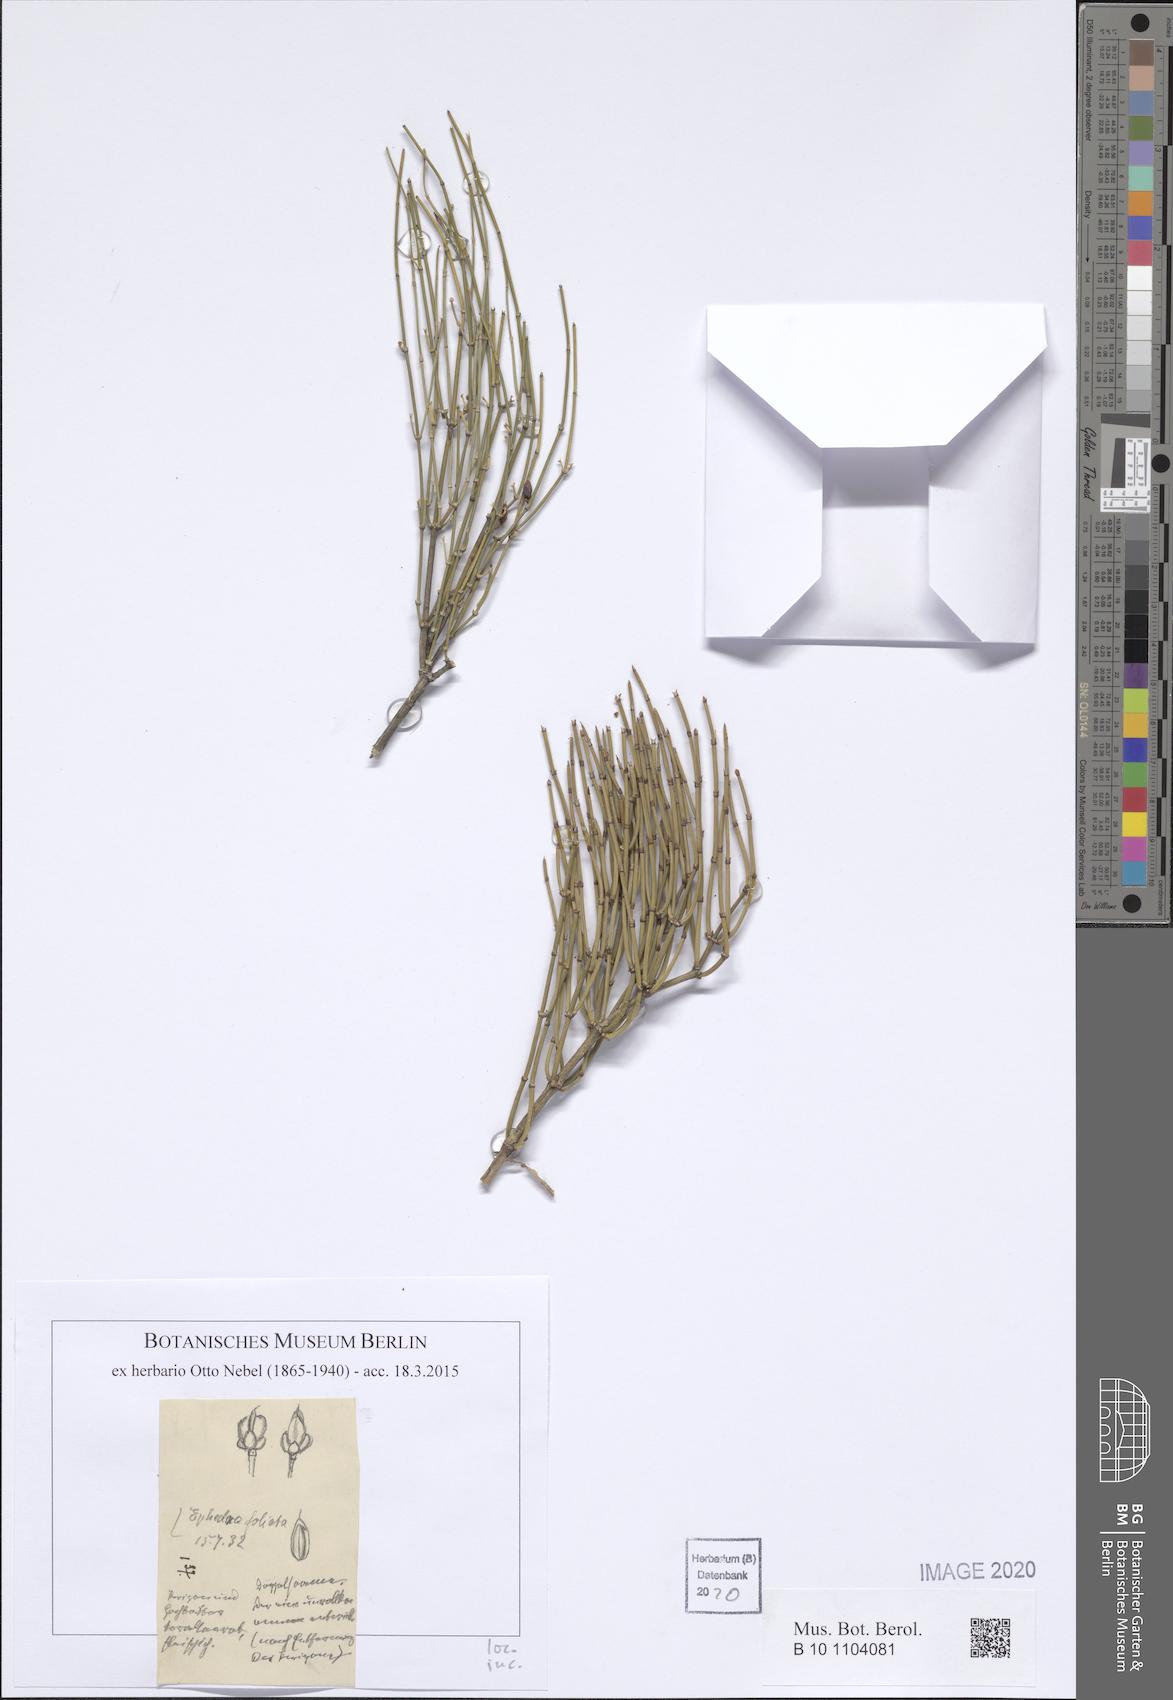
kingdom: Plantae
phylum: Tracheophyta
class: Gnetopsida
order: Ephedrales
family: Ephedraceae
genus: Ephedra
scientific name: Ephedra ciliata
